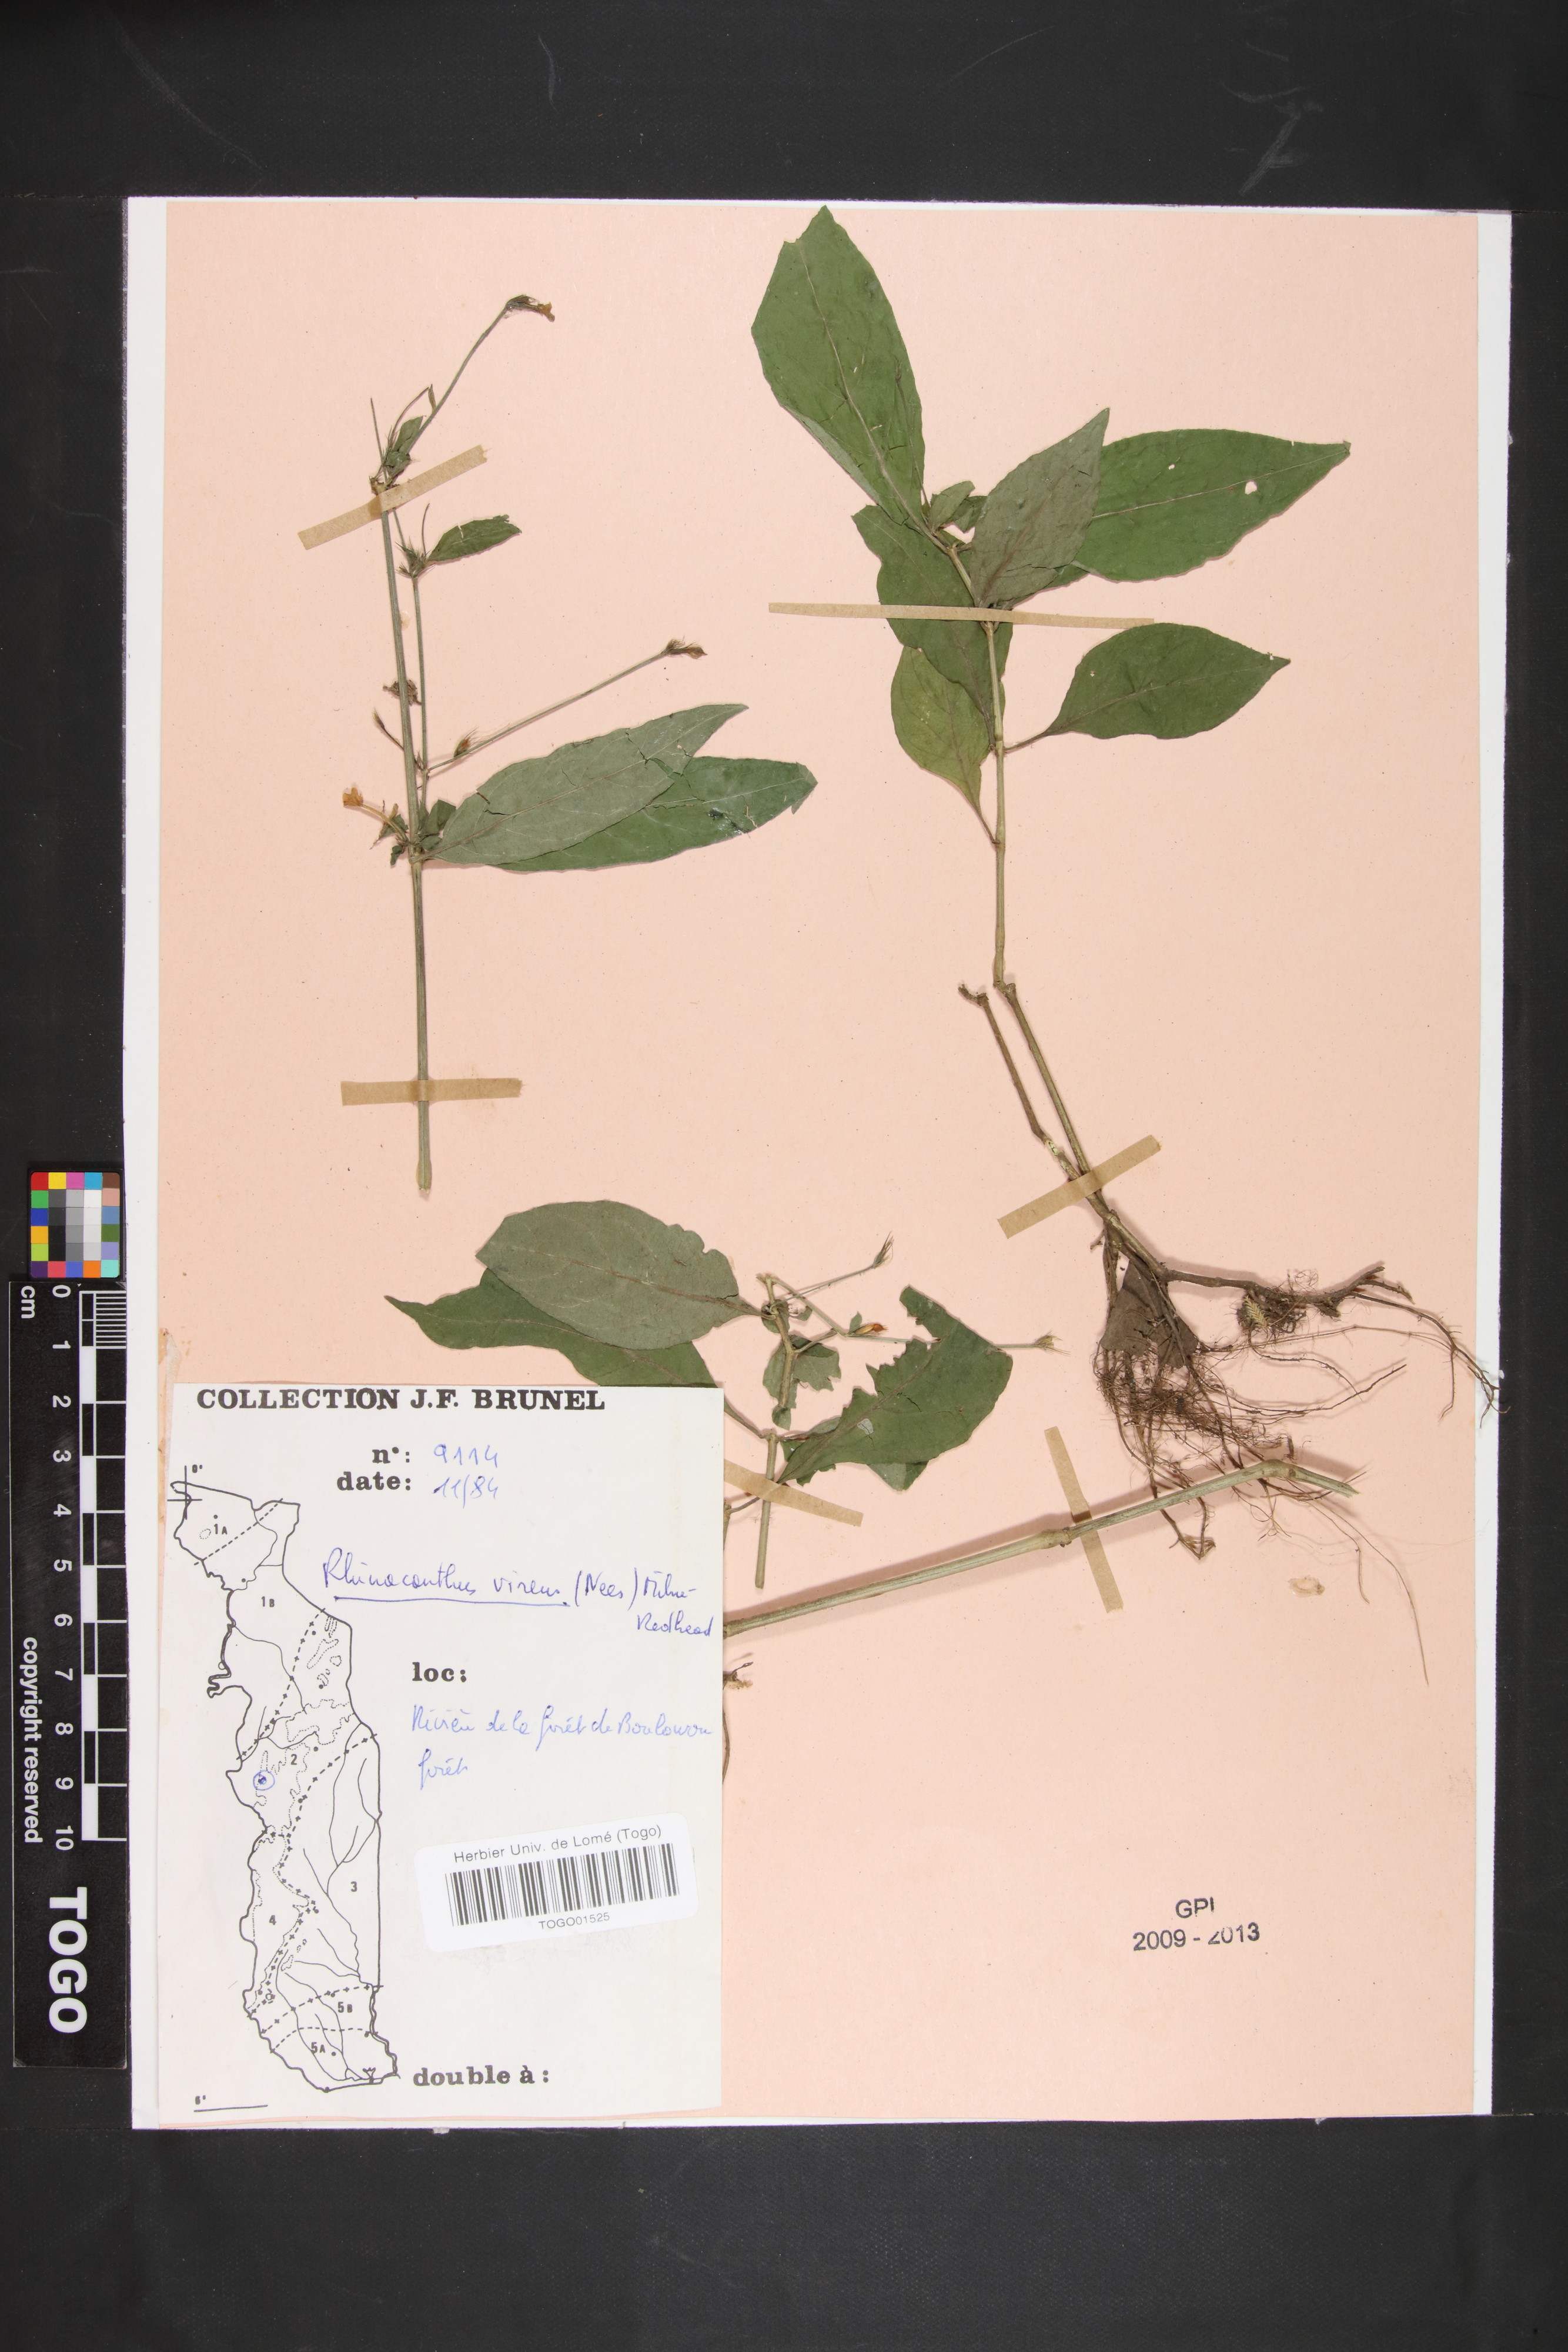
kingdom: Plantae
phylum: Tracheophyta
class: Magnoliopsida
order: Lamiales
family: Acanthaceae
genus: Rhinacanthus
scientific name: Rhinacanthus virens
